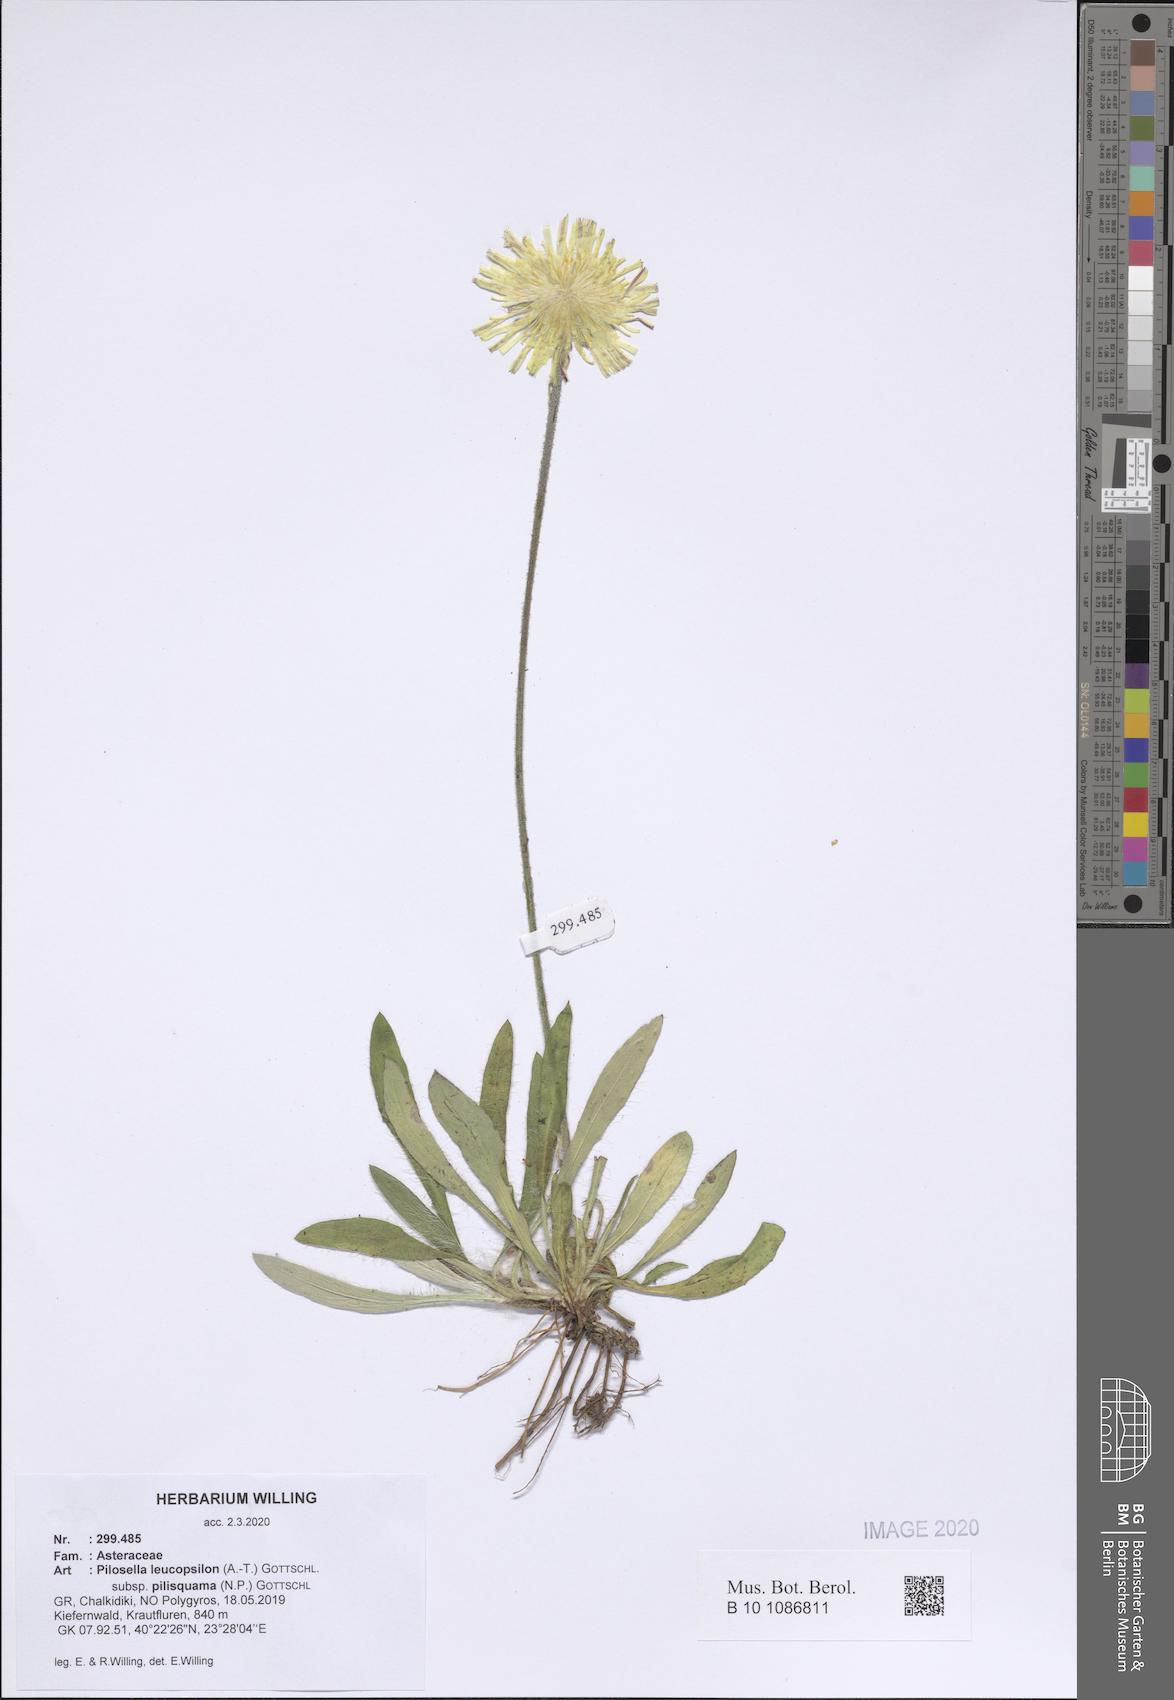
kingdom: Plantae
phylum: Tracheophyta
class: Magnoliopsida
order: Asterales
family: Asteraceae
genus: Pilosella
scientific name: Pilosella leucopsilon
